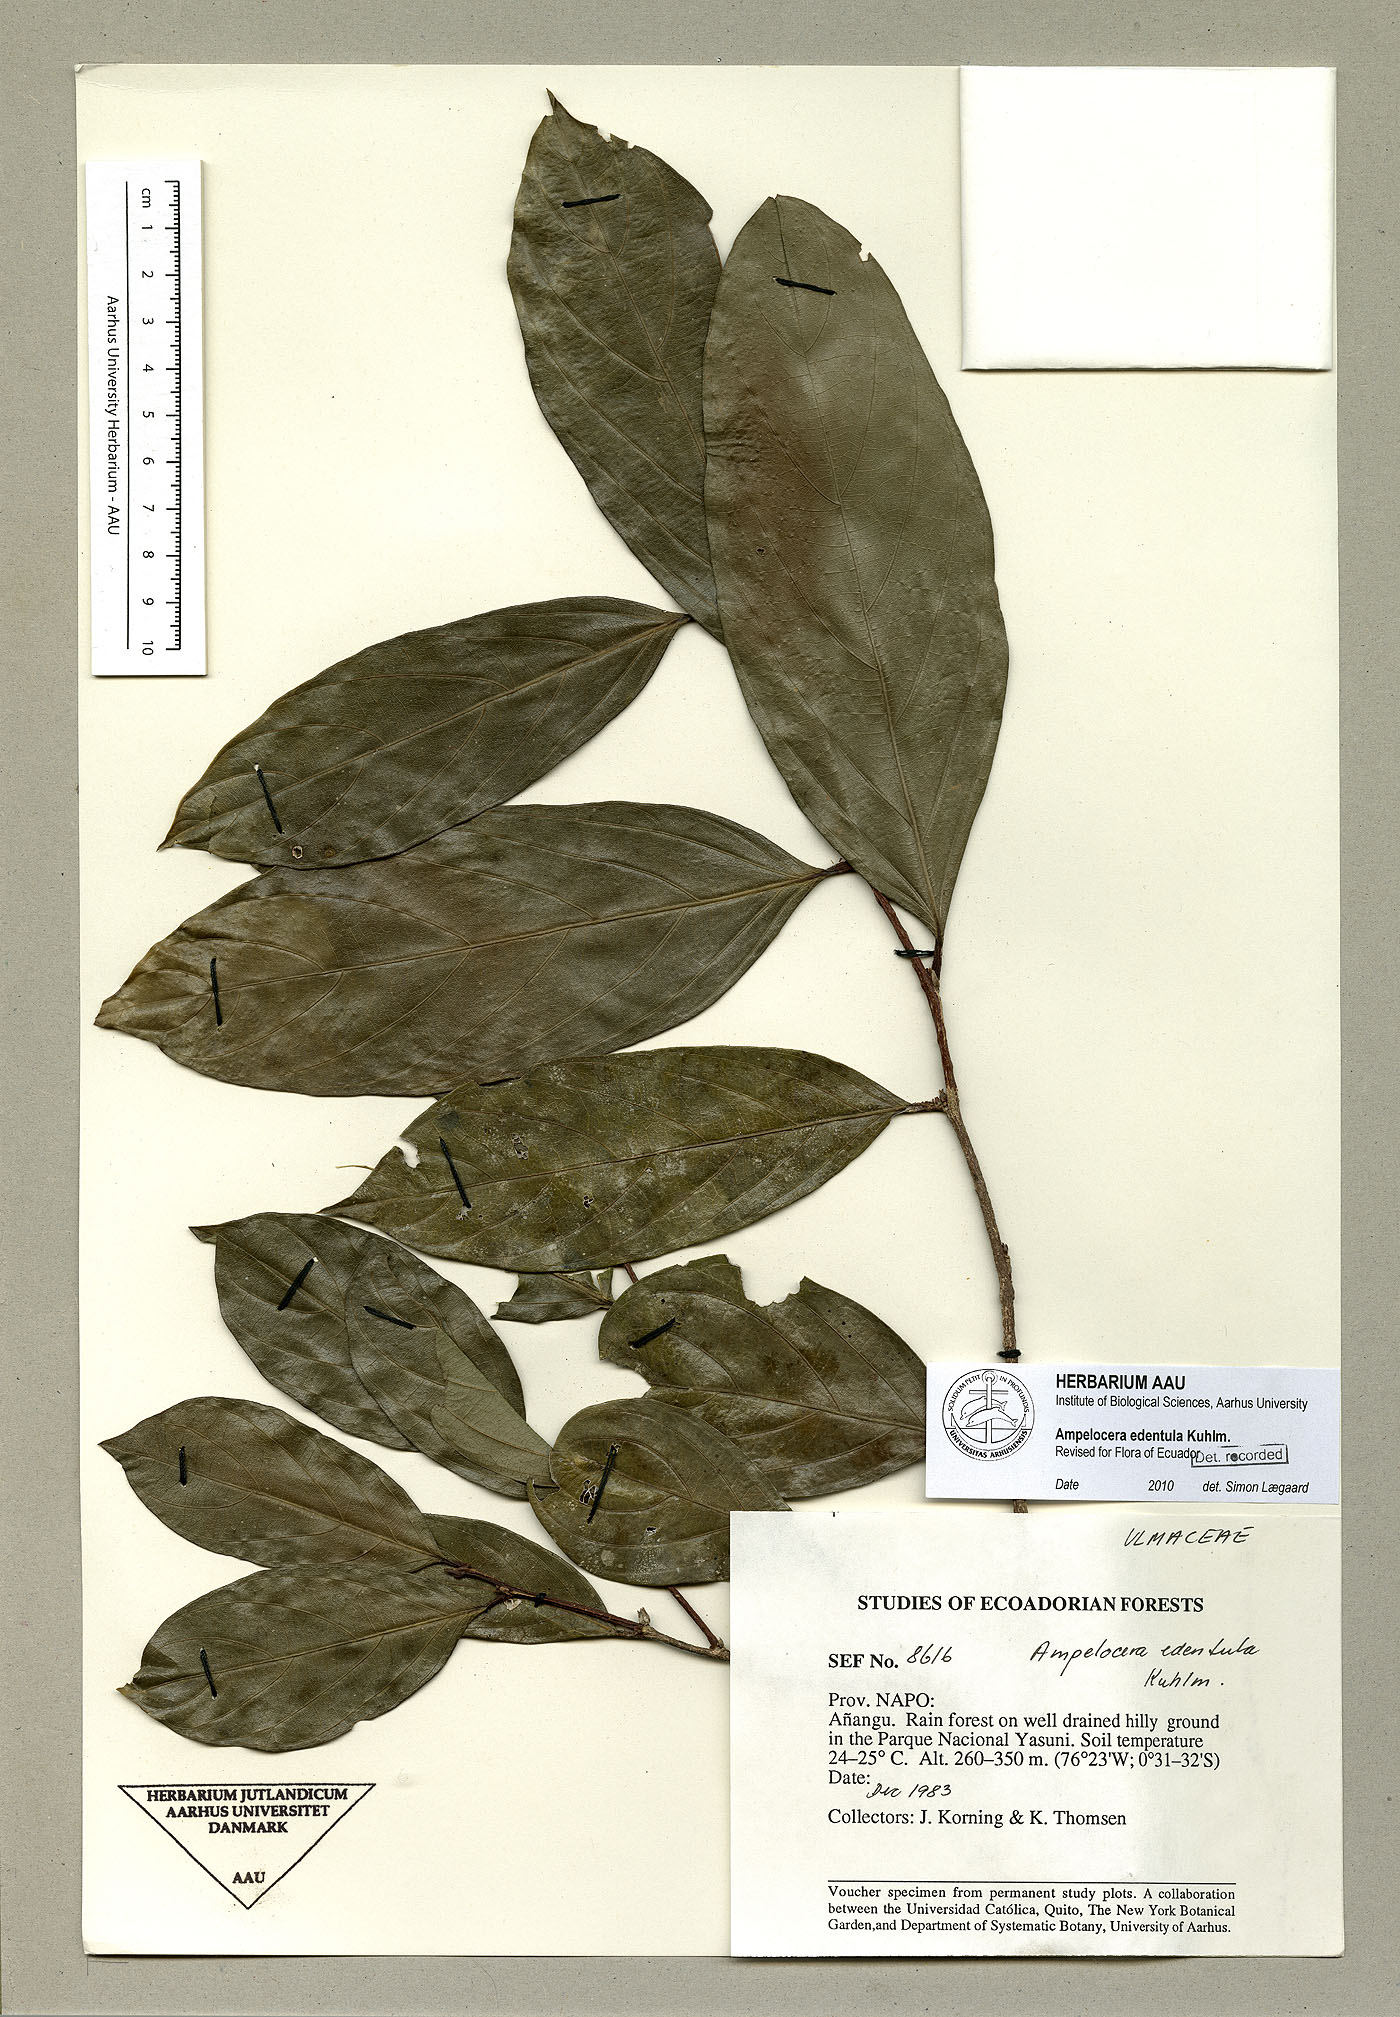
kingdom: Plantae
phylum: Tracheophyta
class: Magnoliopsida
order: Rosales
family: Cannabaceae
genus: Ampelocera
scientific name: Ampelocera edentula
